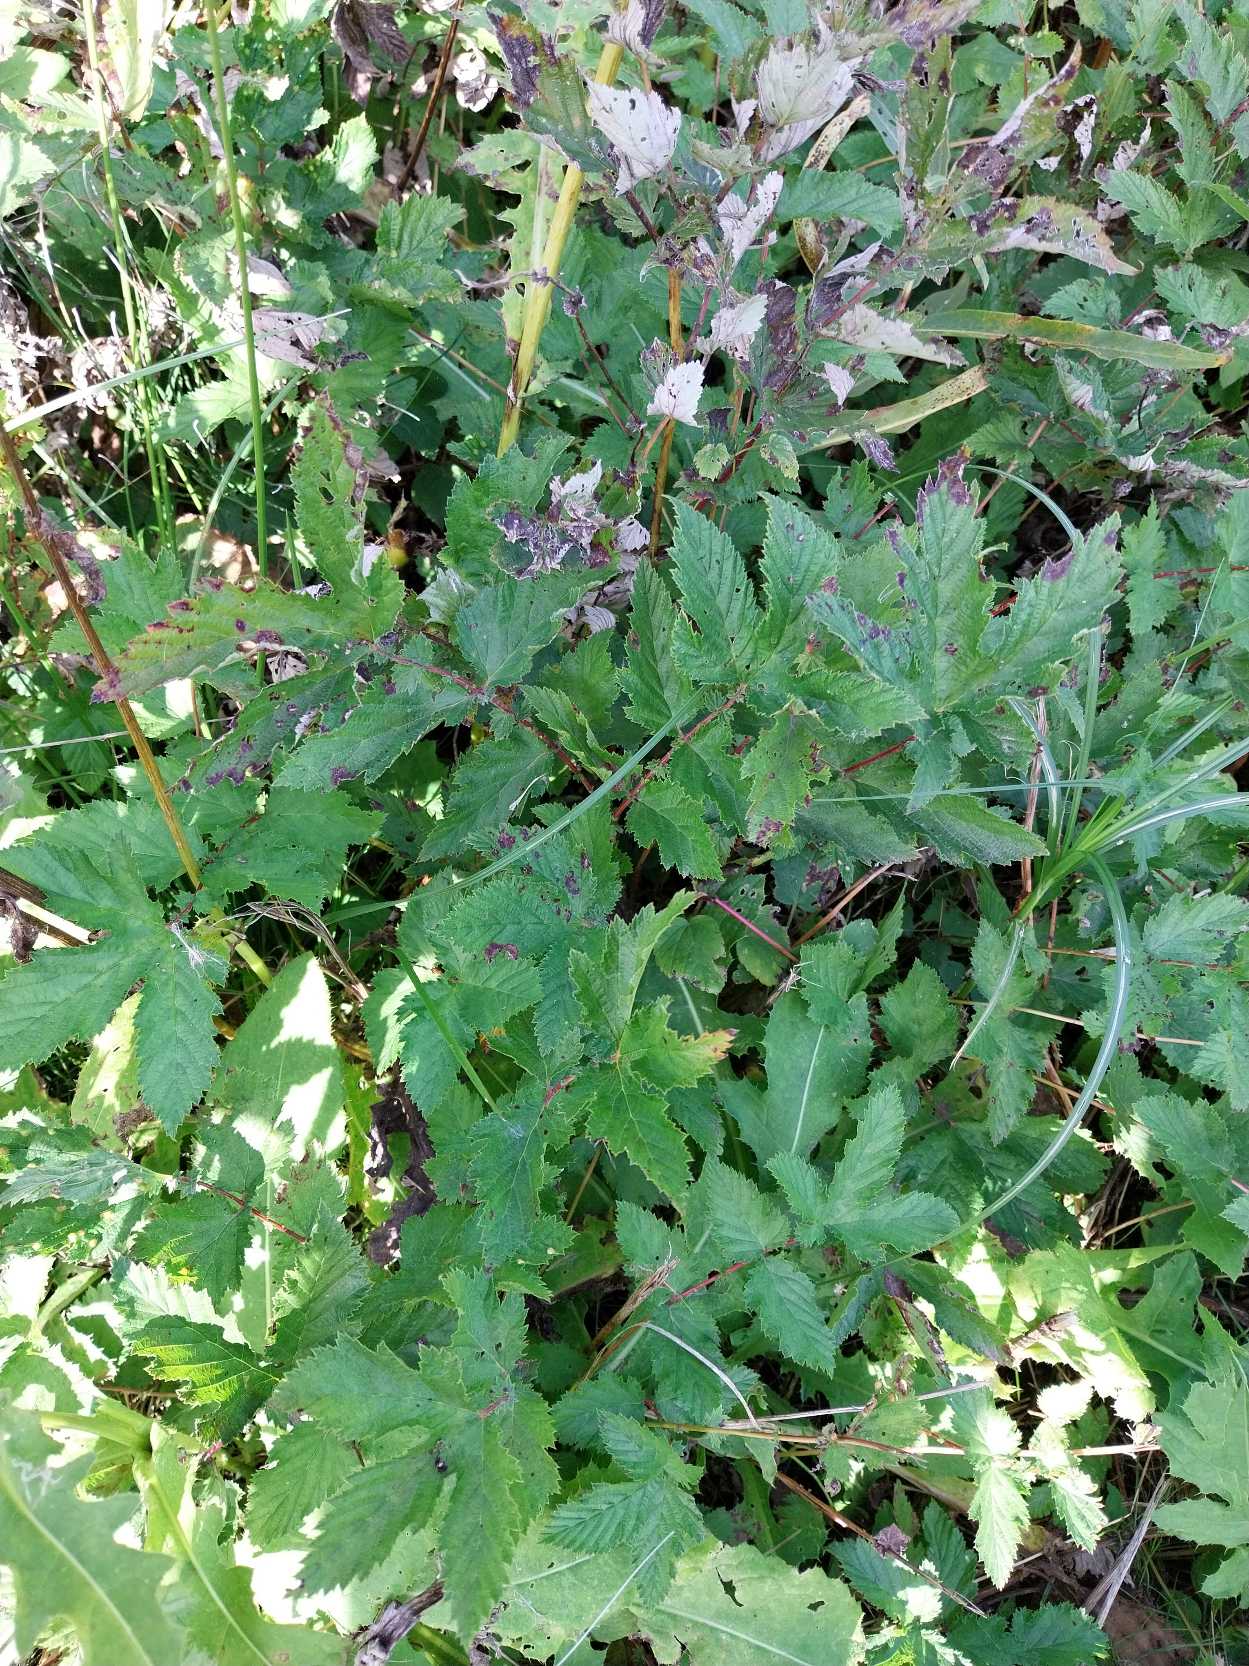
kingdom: Plantae
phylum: Tracheophyta
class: Magnoliopsida
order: Rosales
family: Rosaceae
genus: Filipendula
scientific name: Filipendula ulmaria
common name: Almindelig mjødurt
